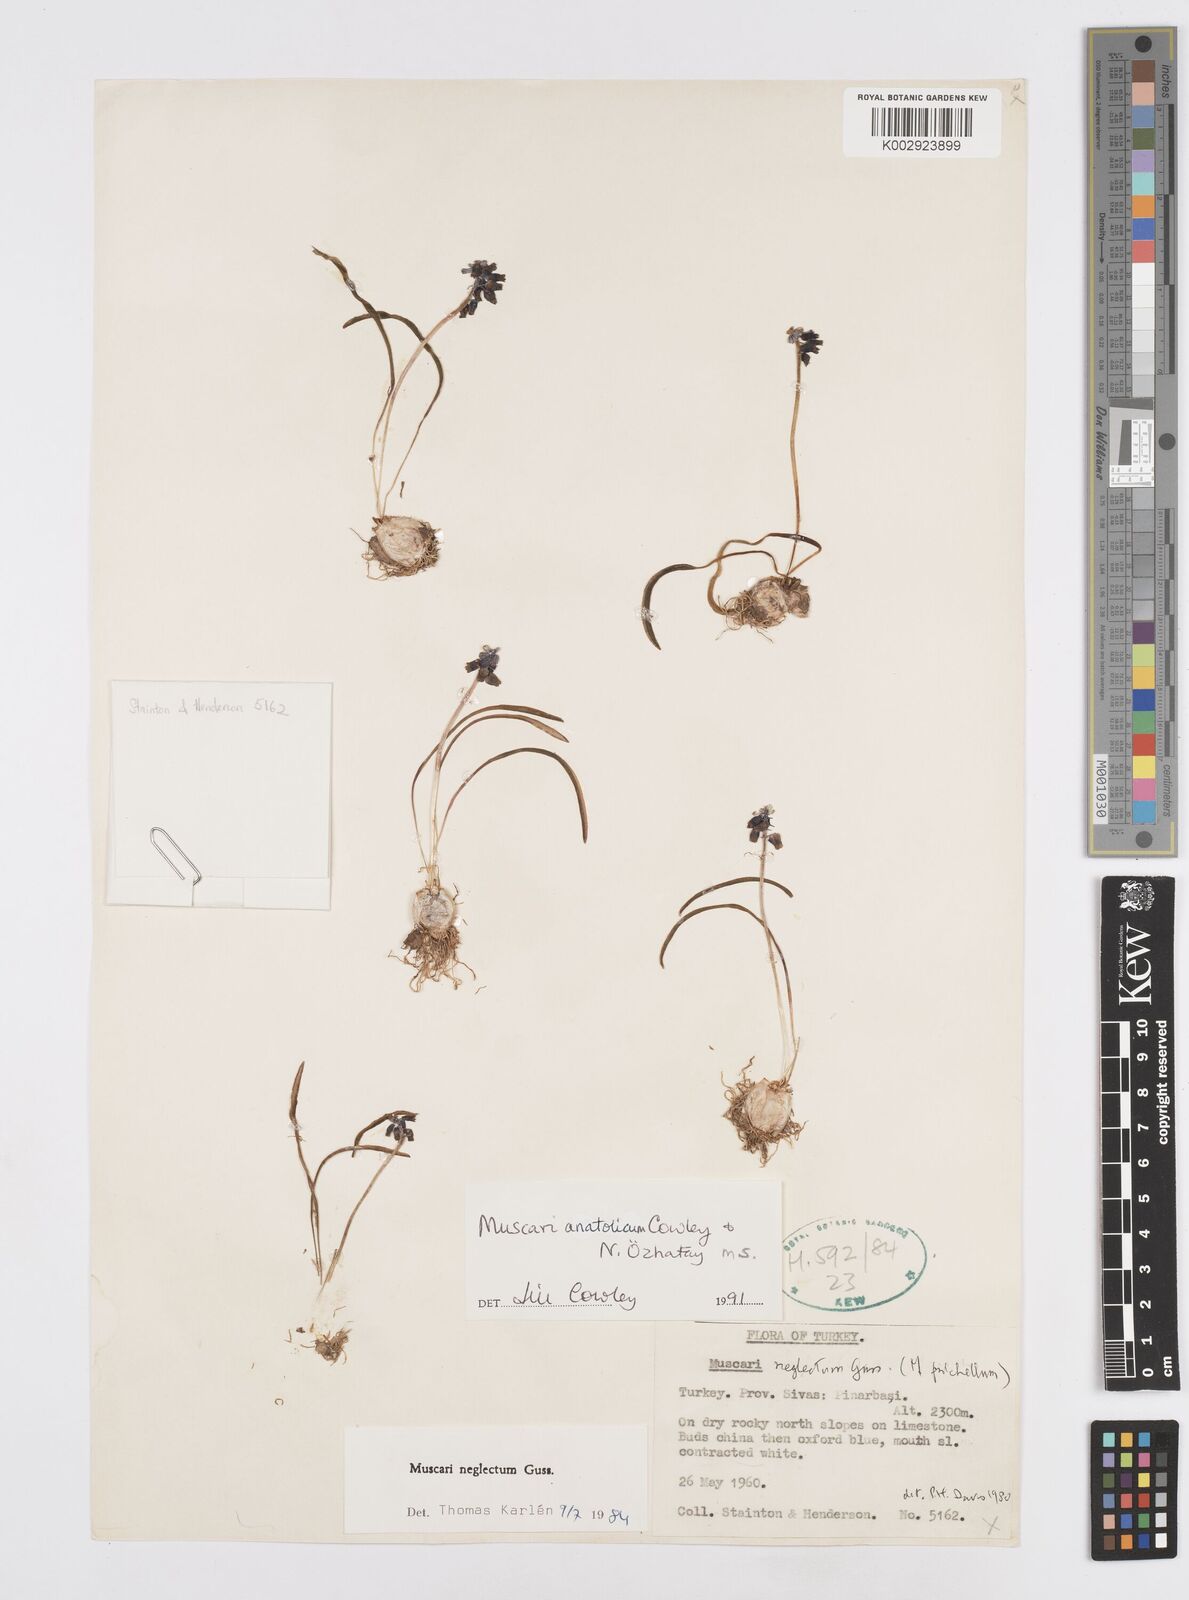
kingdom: Plantae
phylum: Tracheophyta
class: Liliopsida
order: Asparagales
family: Asparagaceae
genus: Muscari
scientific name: Muscari anatolicum
